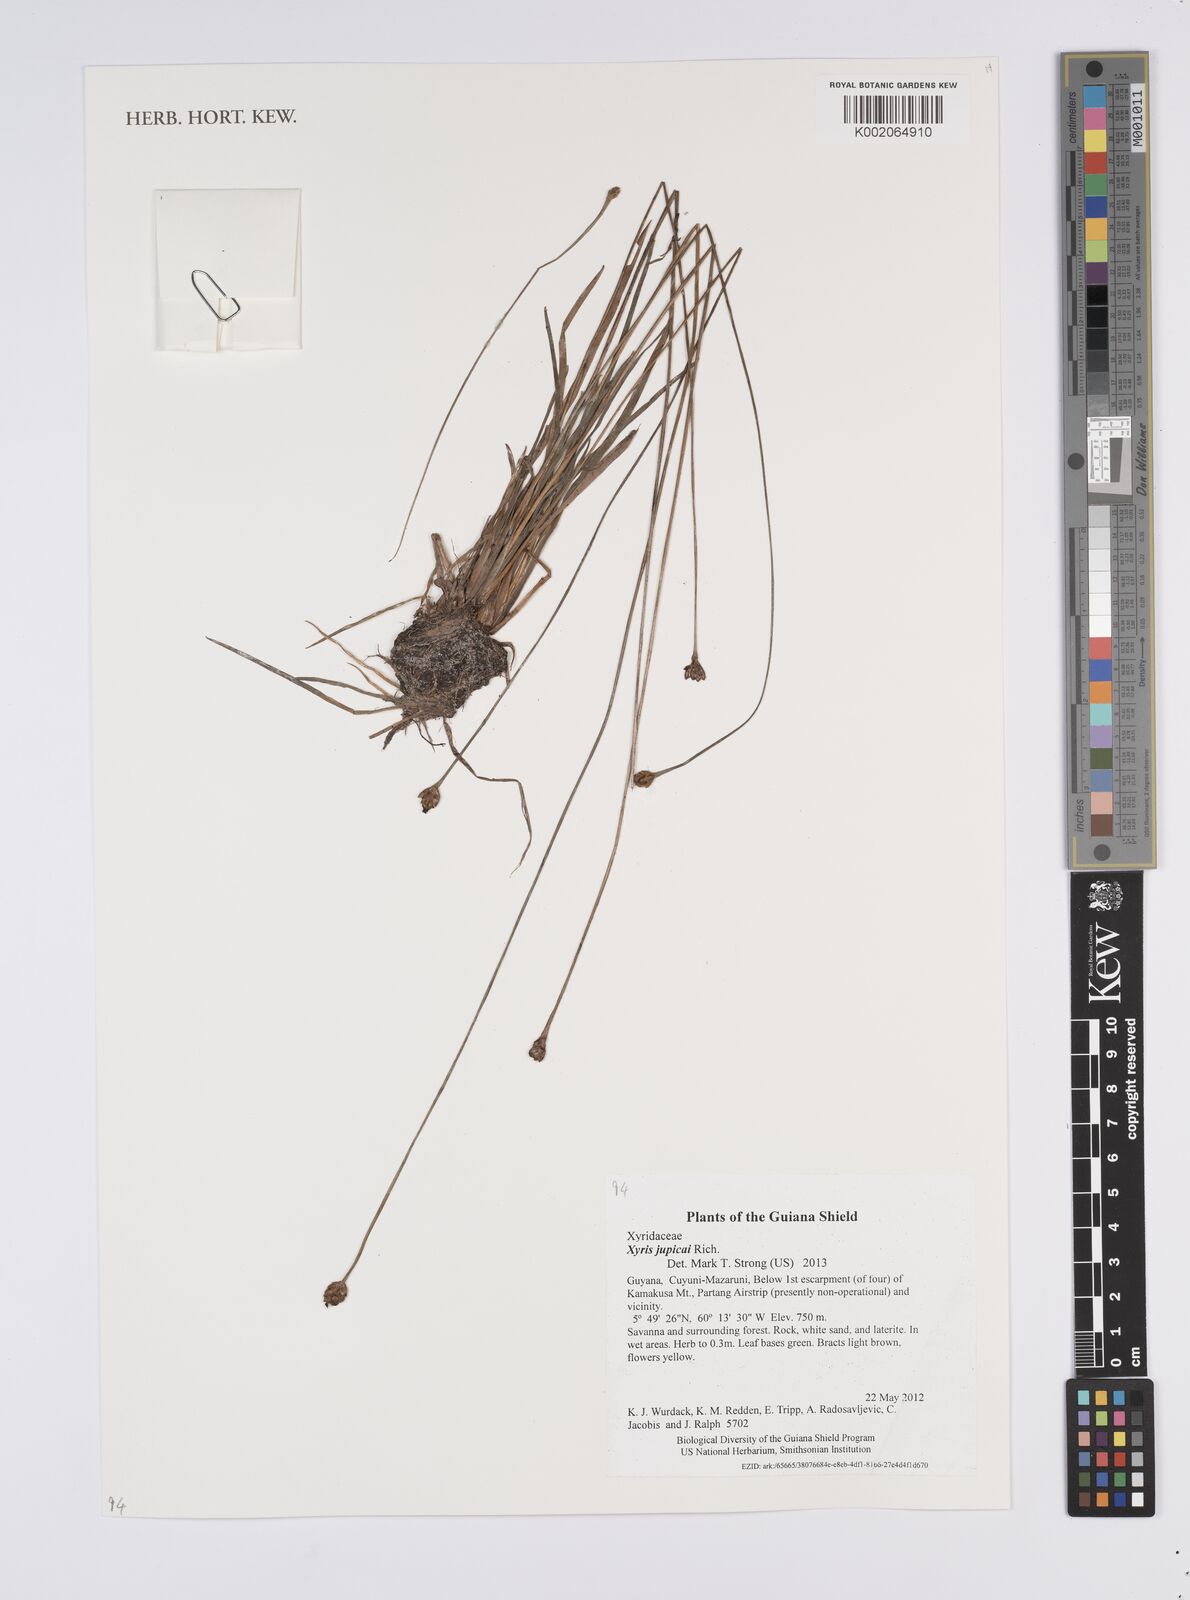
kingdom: Plantae
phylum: Tracheophyta
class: Liliopsida
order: Poales
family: Xyridaceae
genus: Xyris
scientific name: Xyris jupicai
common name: Richard's yelloweyed grass
